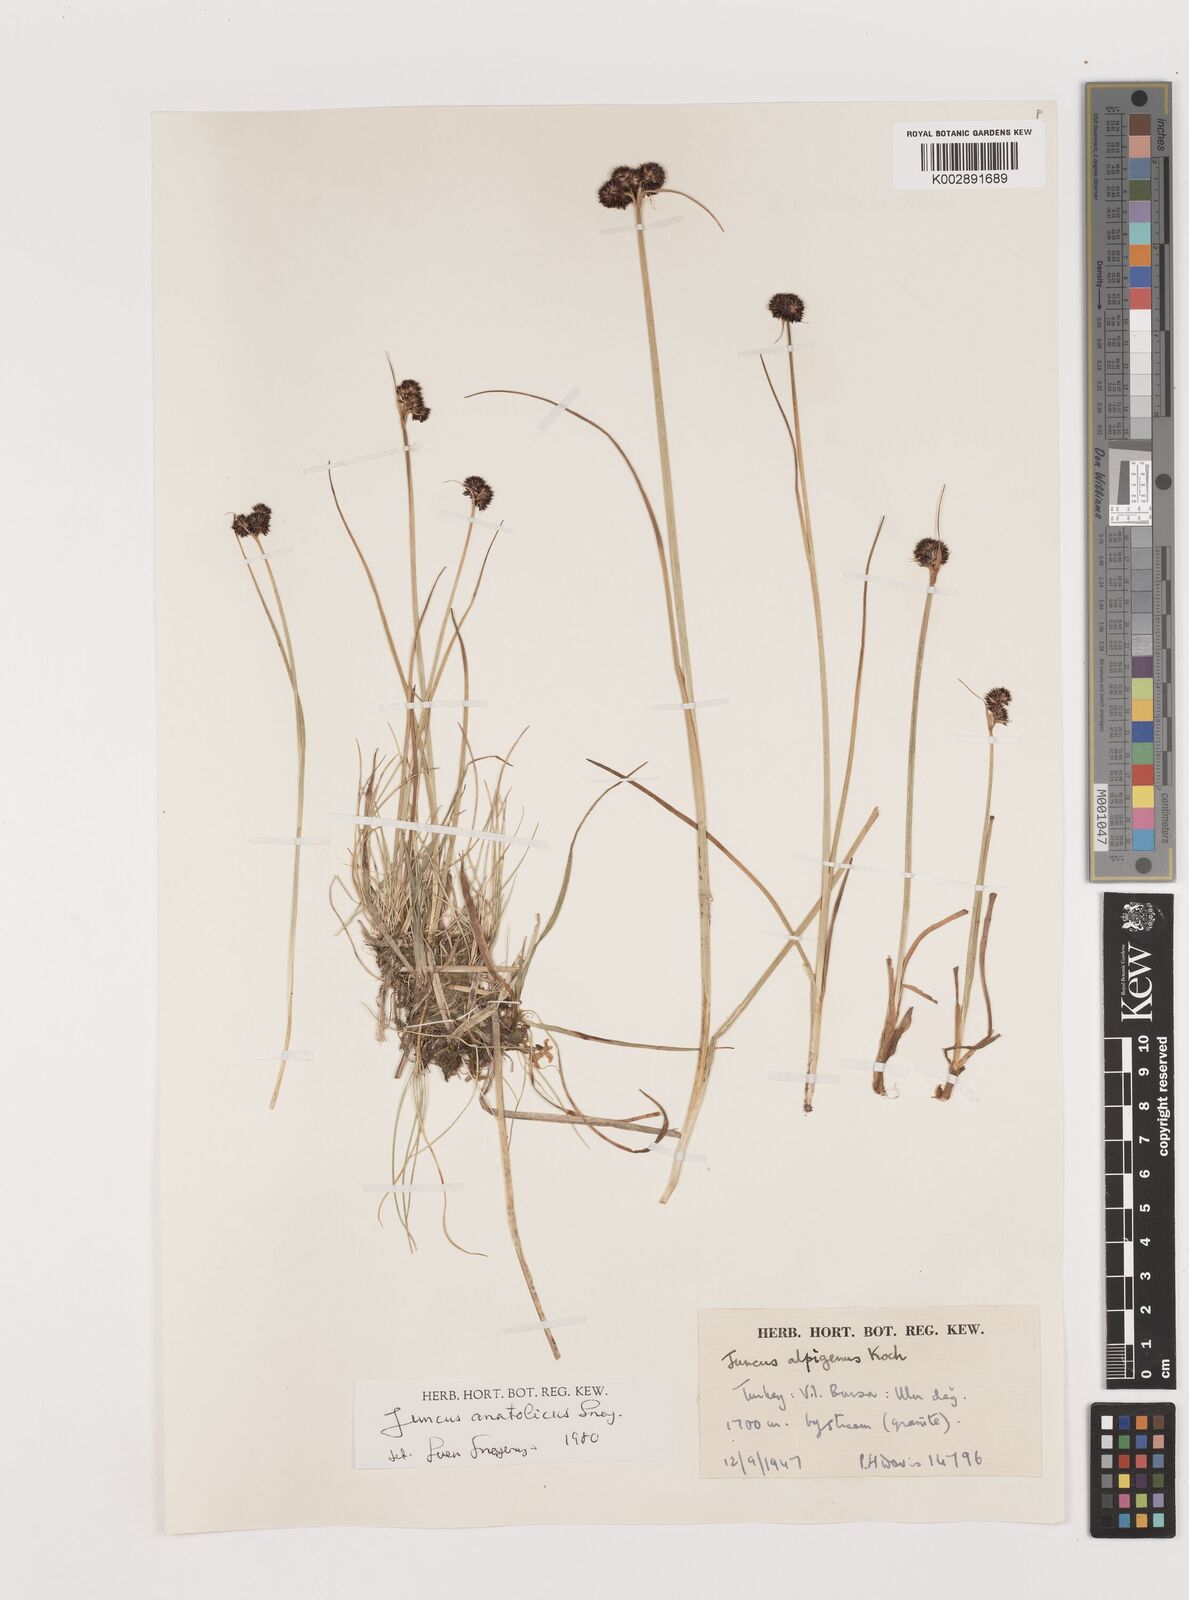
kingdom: Plantae
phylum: Tracheophyta
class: Liliopsida
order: Poales
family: Juncaceae
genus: Juncus
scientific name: Juncus alpigenus
